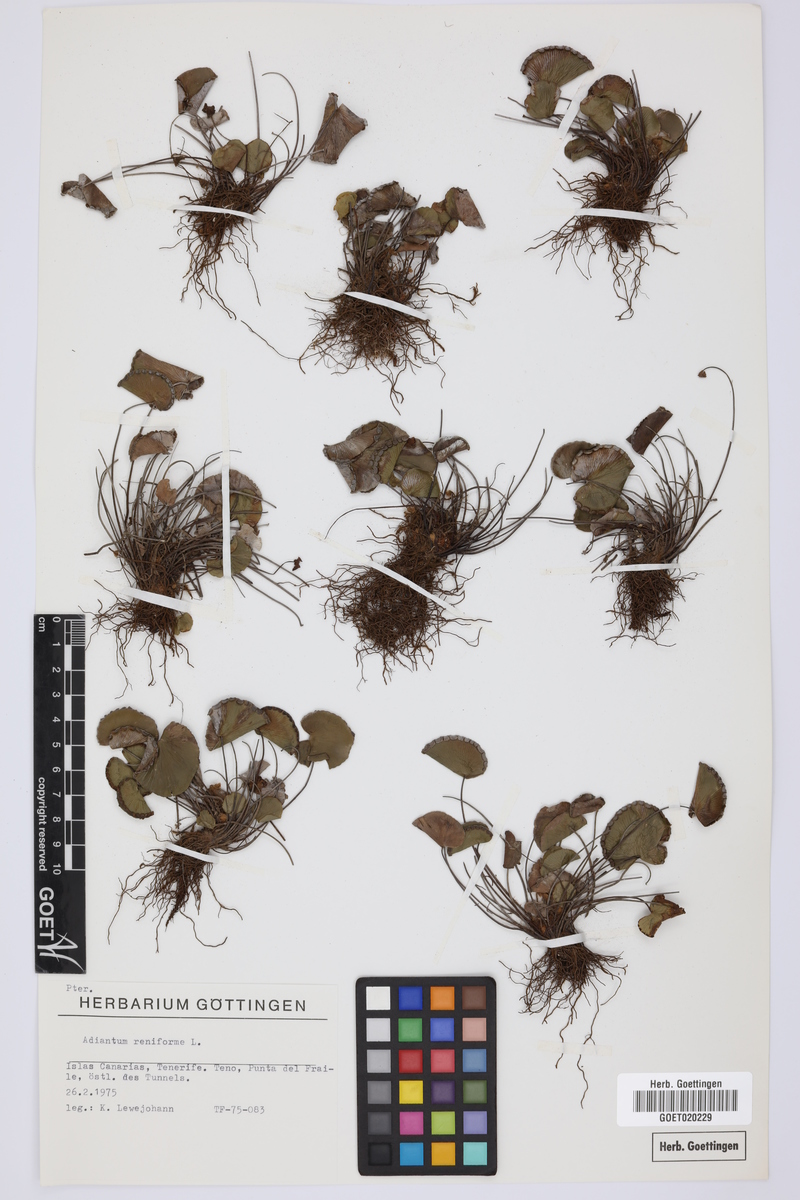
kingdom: Plantae
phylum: Tracheophyta
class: Polypodiopsida
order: Polypodiales
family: Pteridaceae
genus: Adiantum
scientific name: Adiantum reniforme
